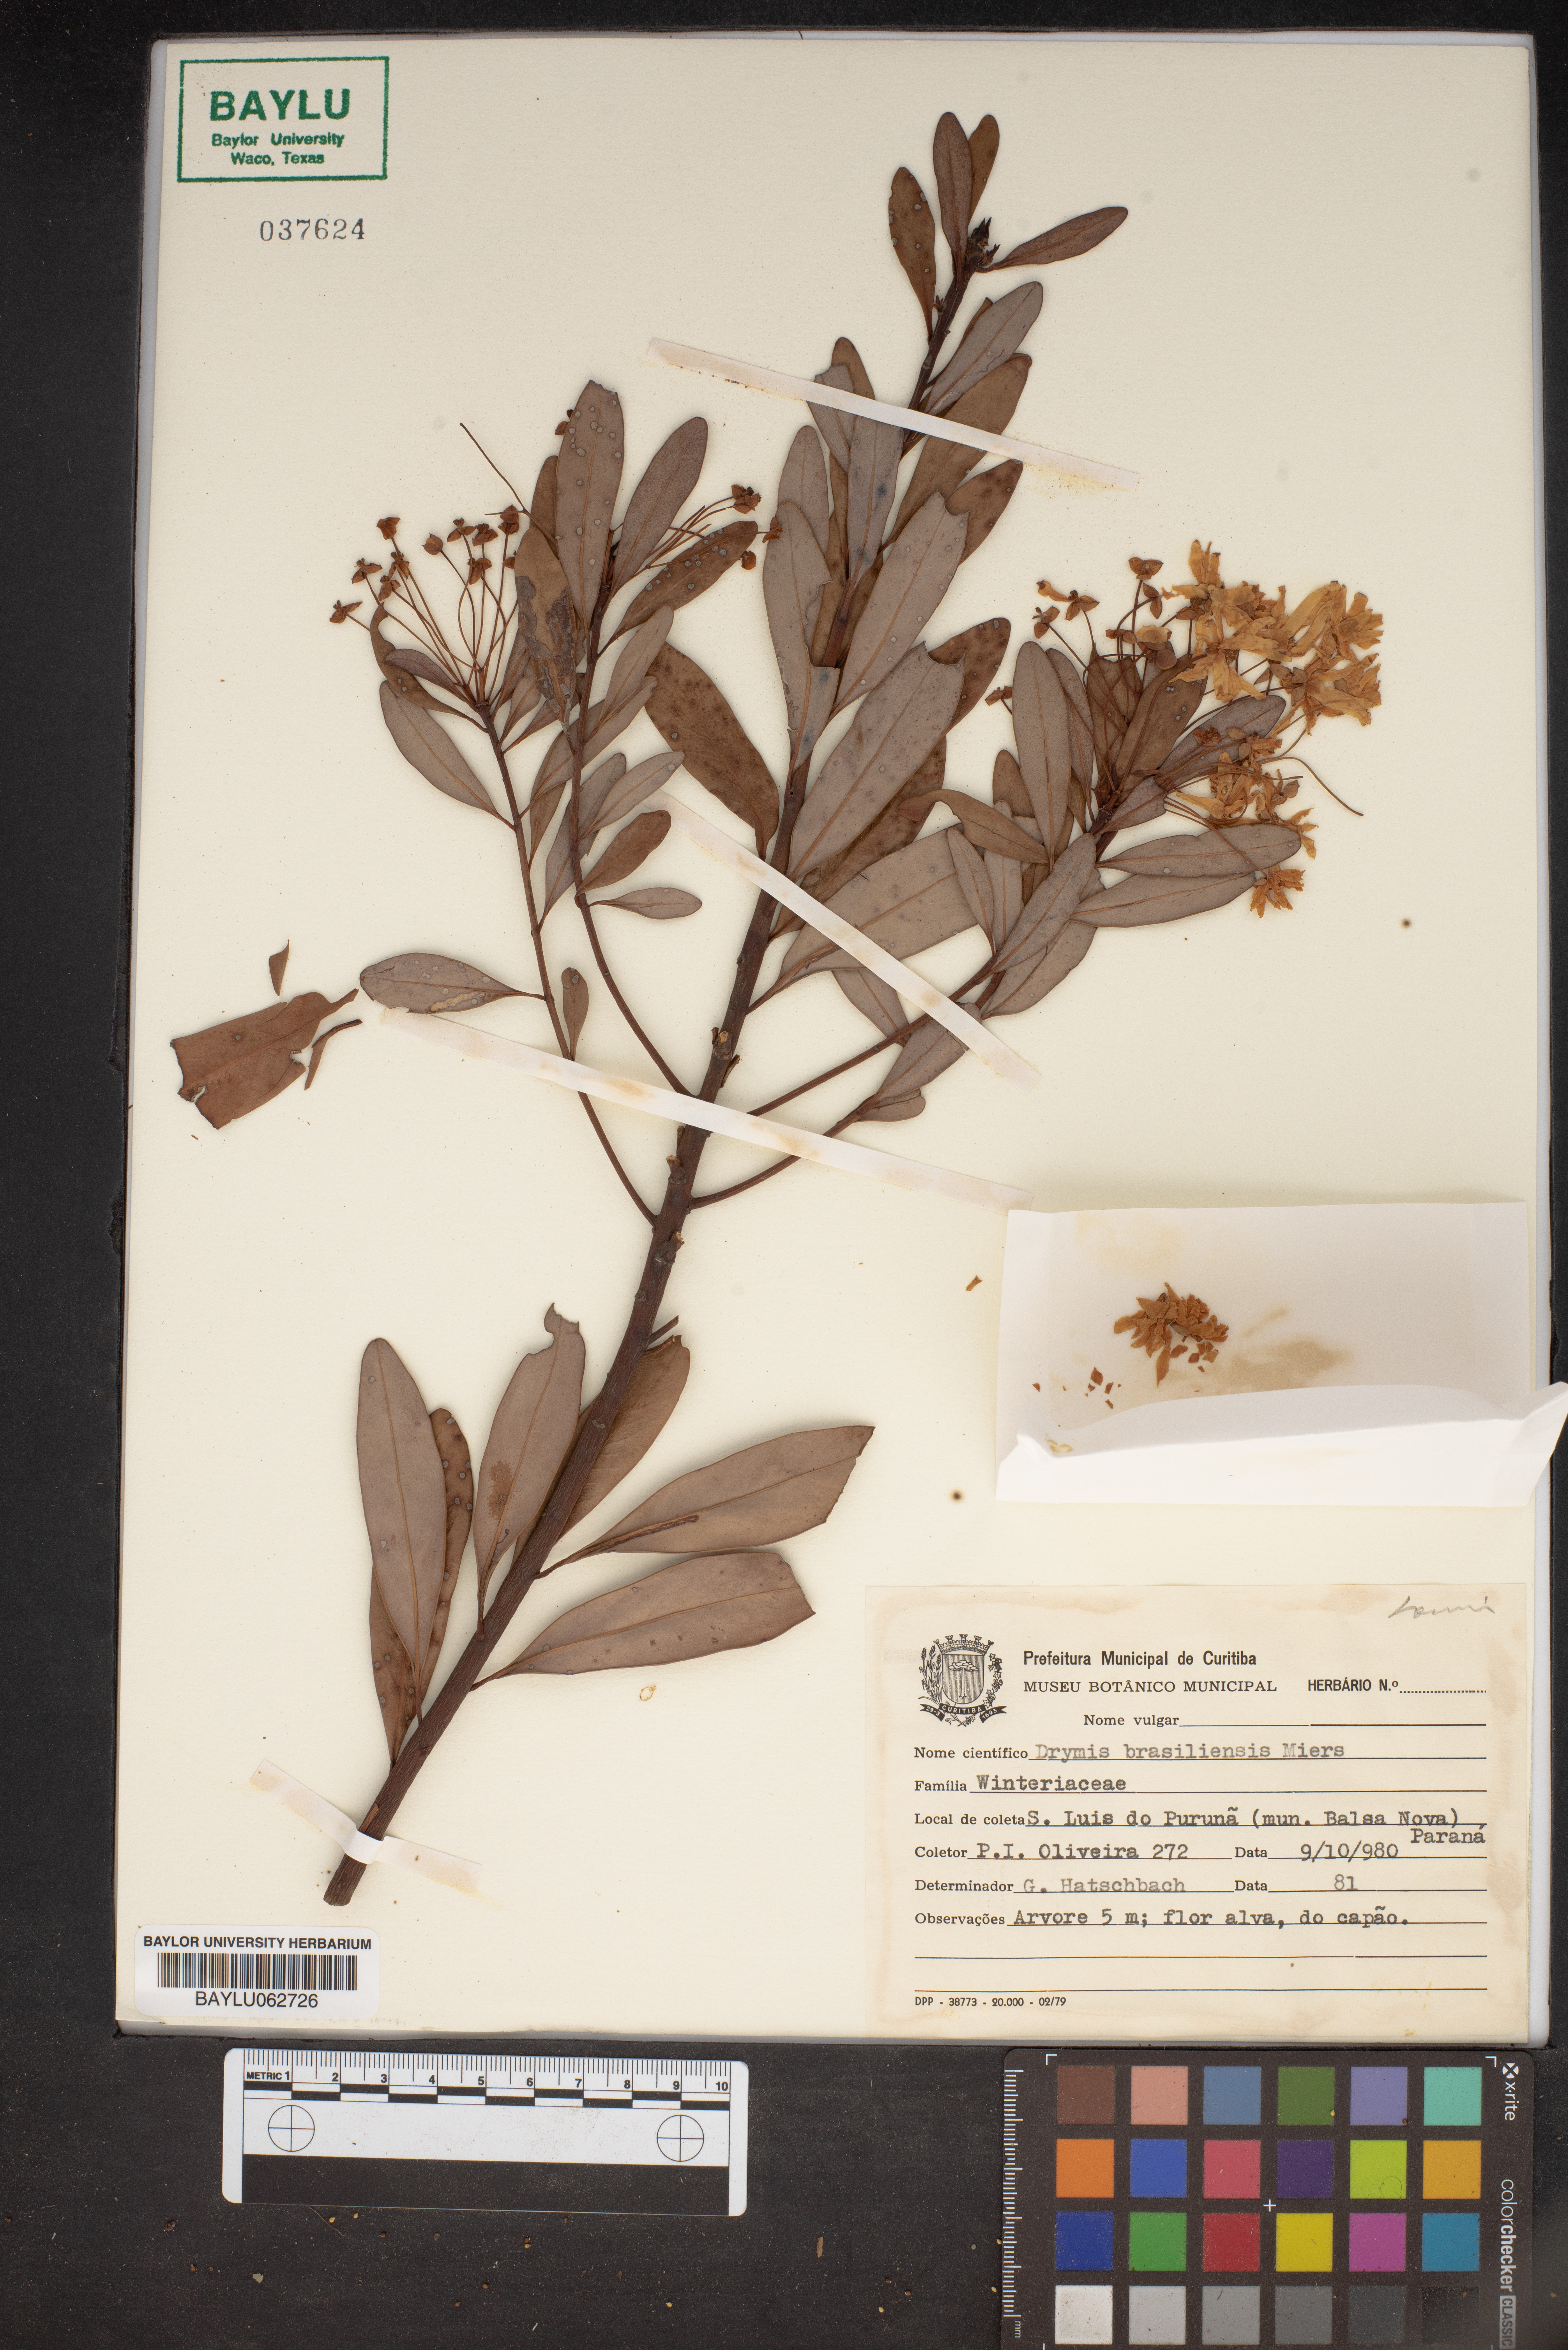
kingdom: Plantae
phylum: Tracheophyta
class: Magnoliopsida
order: Canellales
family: Winteraceae
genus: Drimys
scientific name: Drimys brasiliensis
